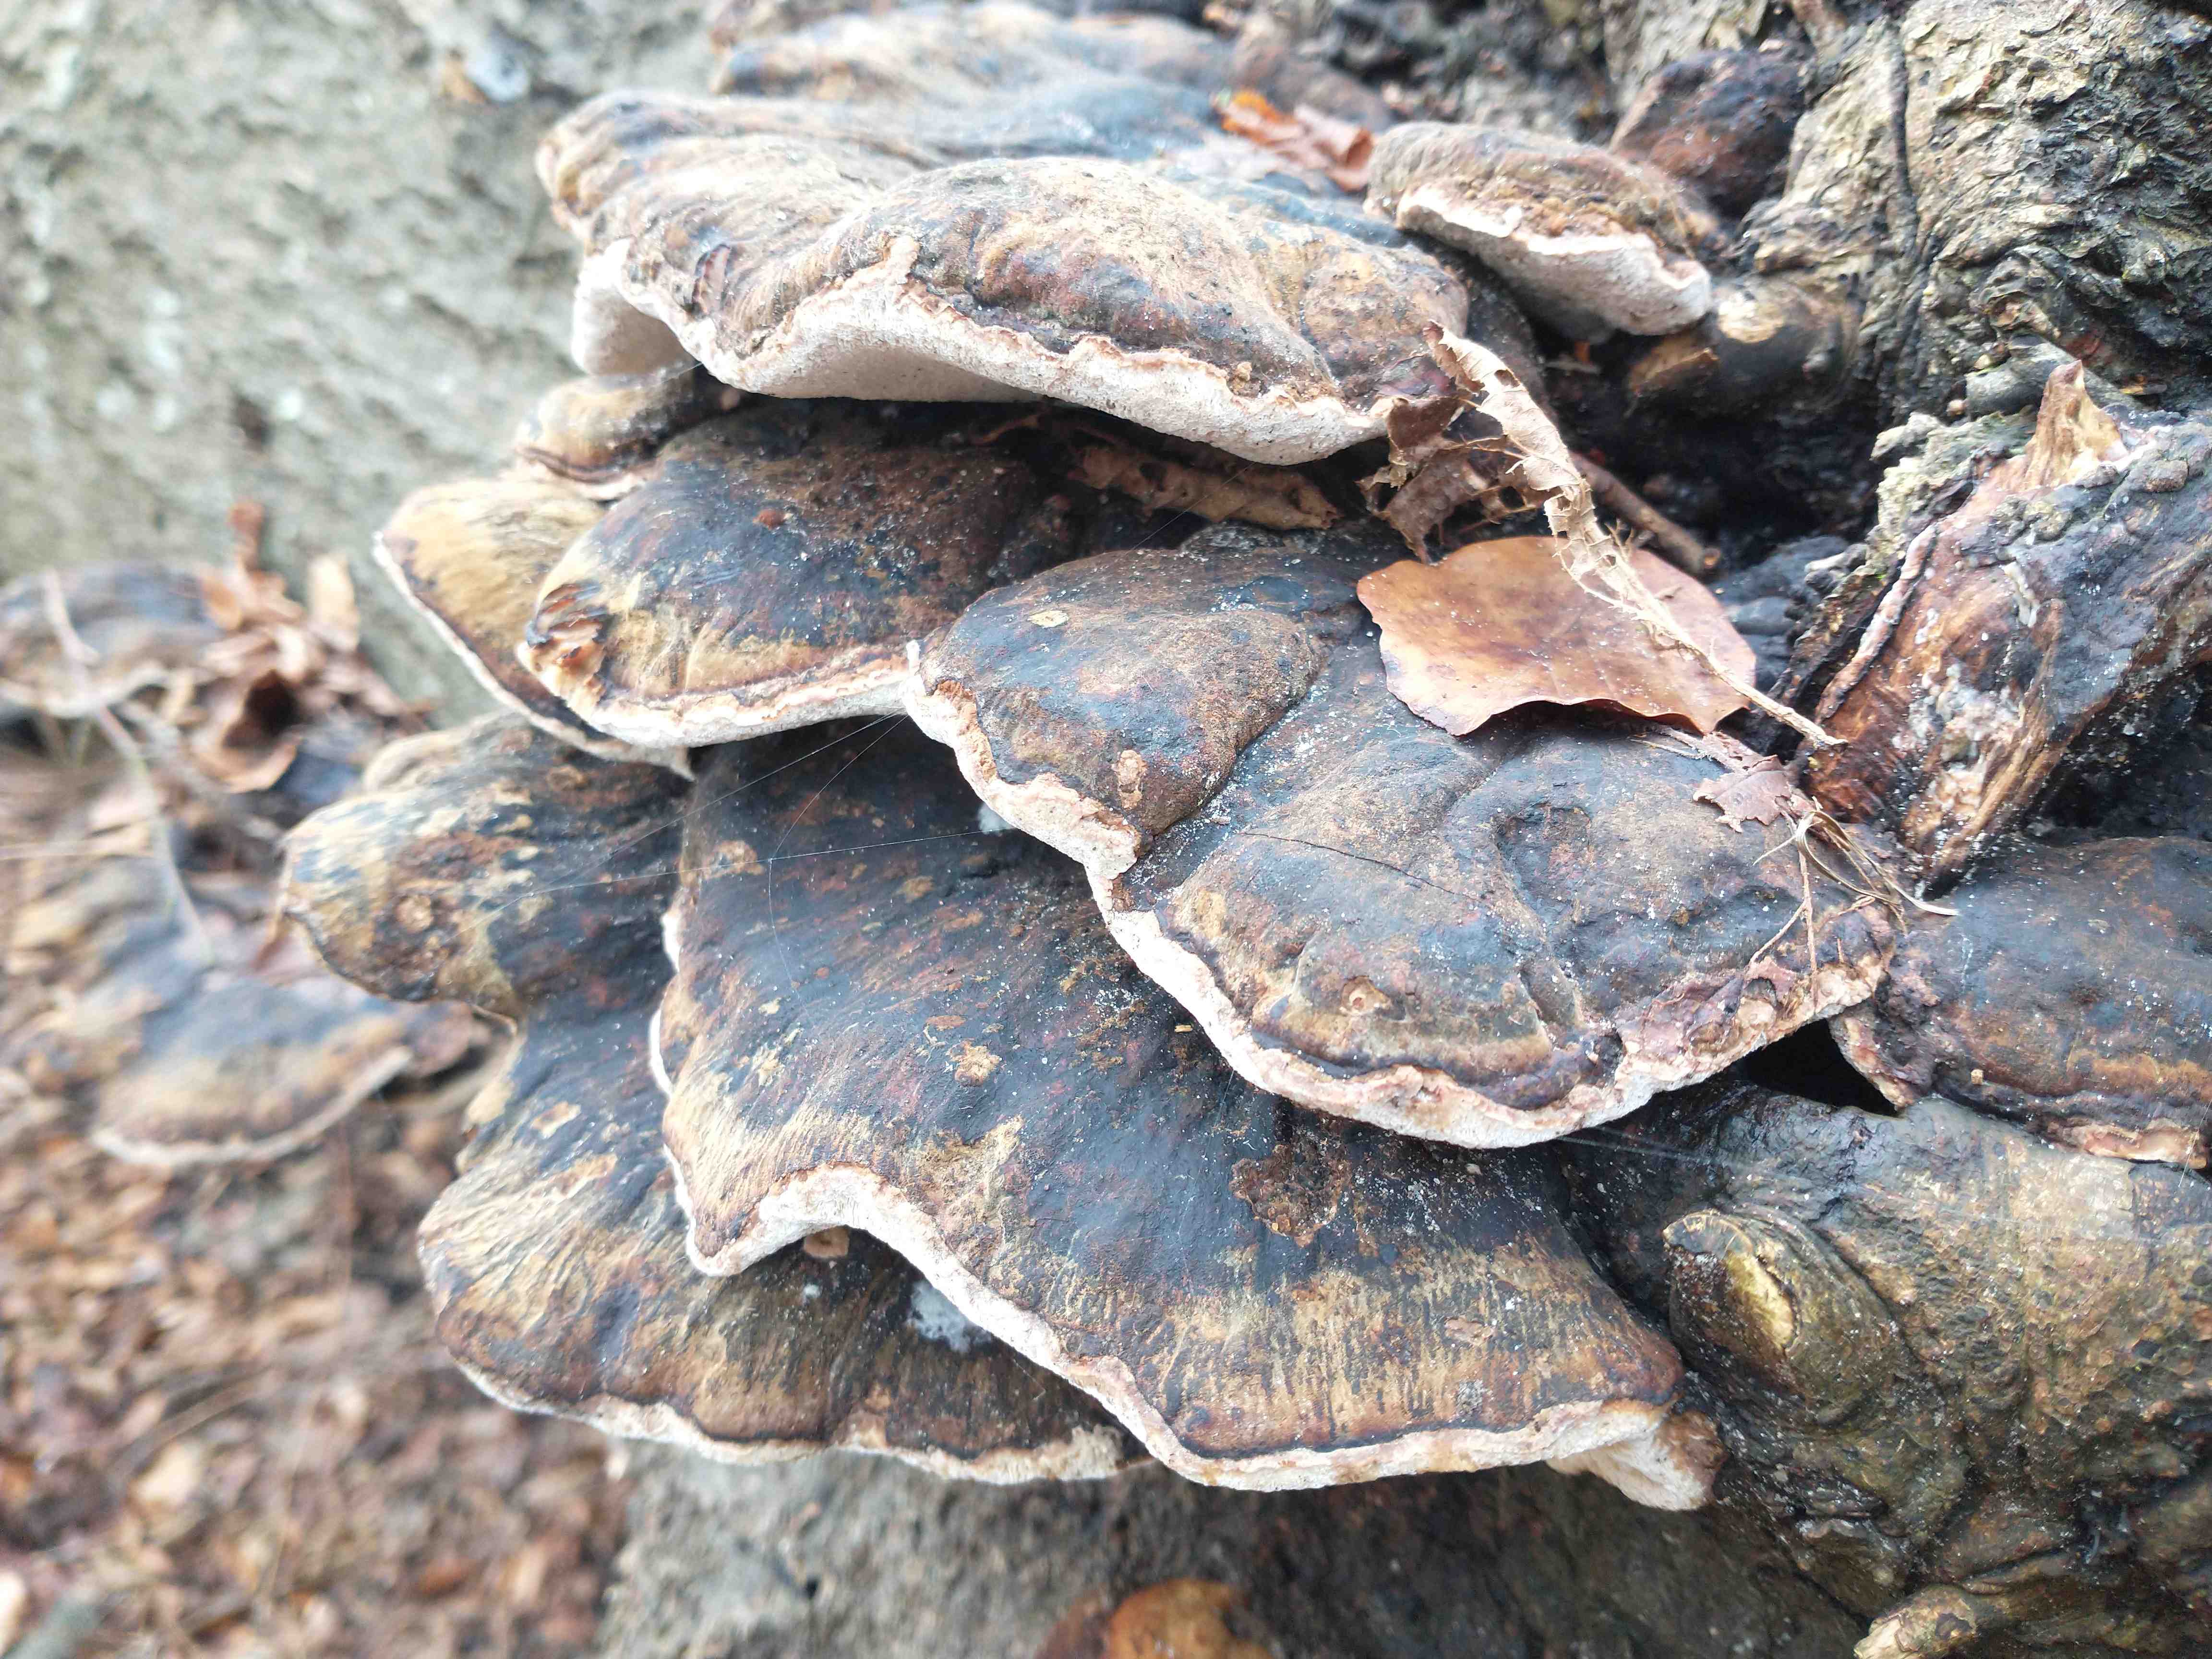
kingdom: Fungi
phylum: Basidiomycota
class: Agaricomycetes
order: Polyporales
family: Ischnodermataceae
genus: Ischnoderma
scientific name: Ischnoderma resinosum
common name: løv-tjæreporesvamp
